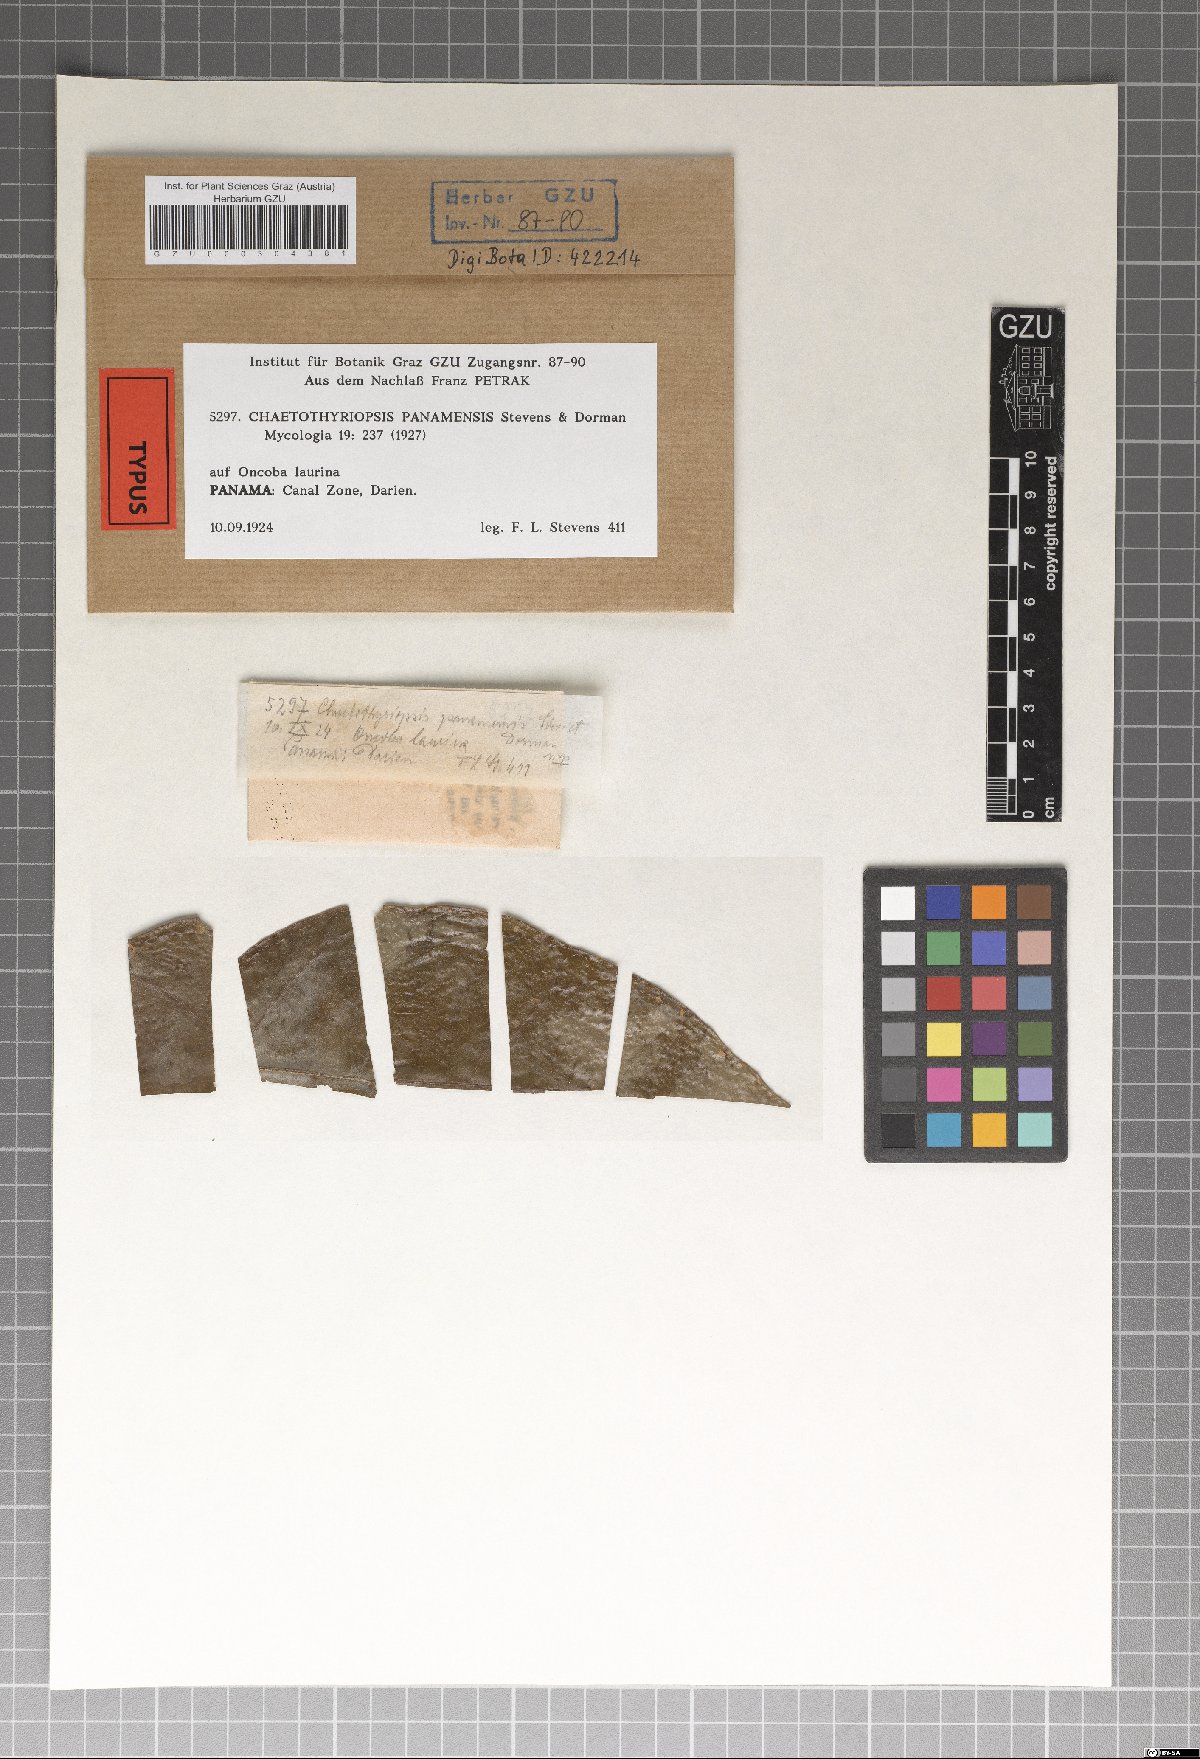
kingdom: Fungi
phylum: Ascomycota
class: Dothideomycetes
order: Microthyriales
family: Micropeltidaceae
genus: Chaetothyrina
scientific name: Chaetothyrina panamensis
